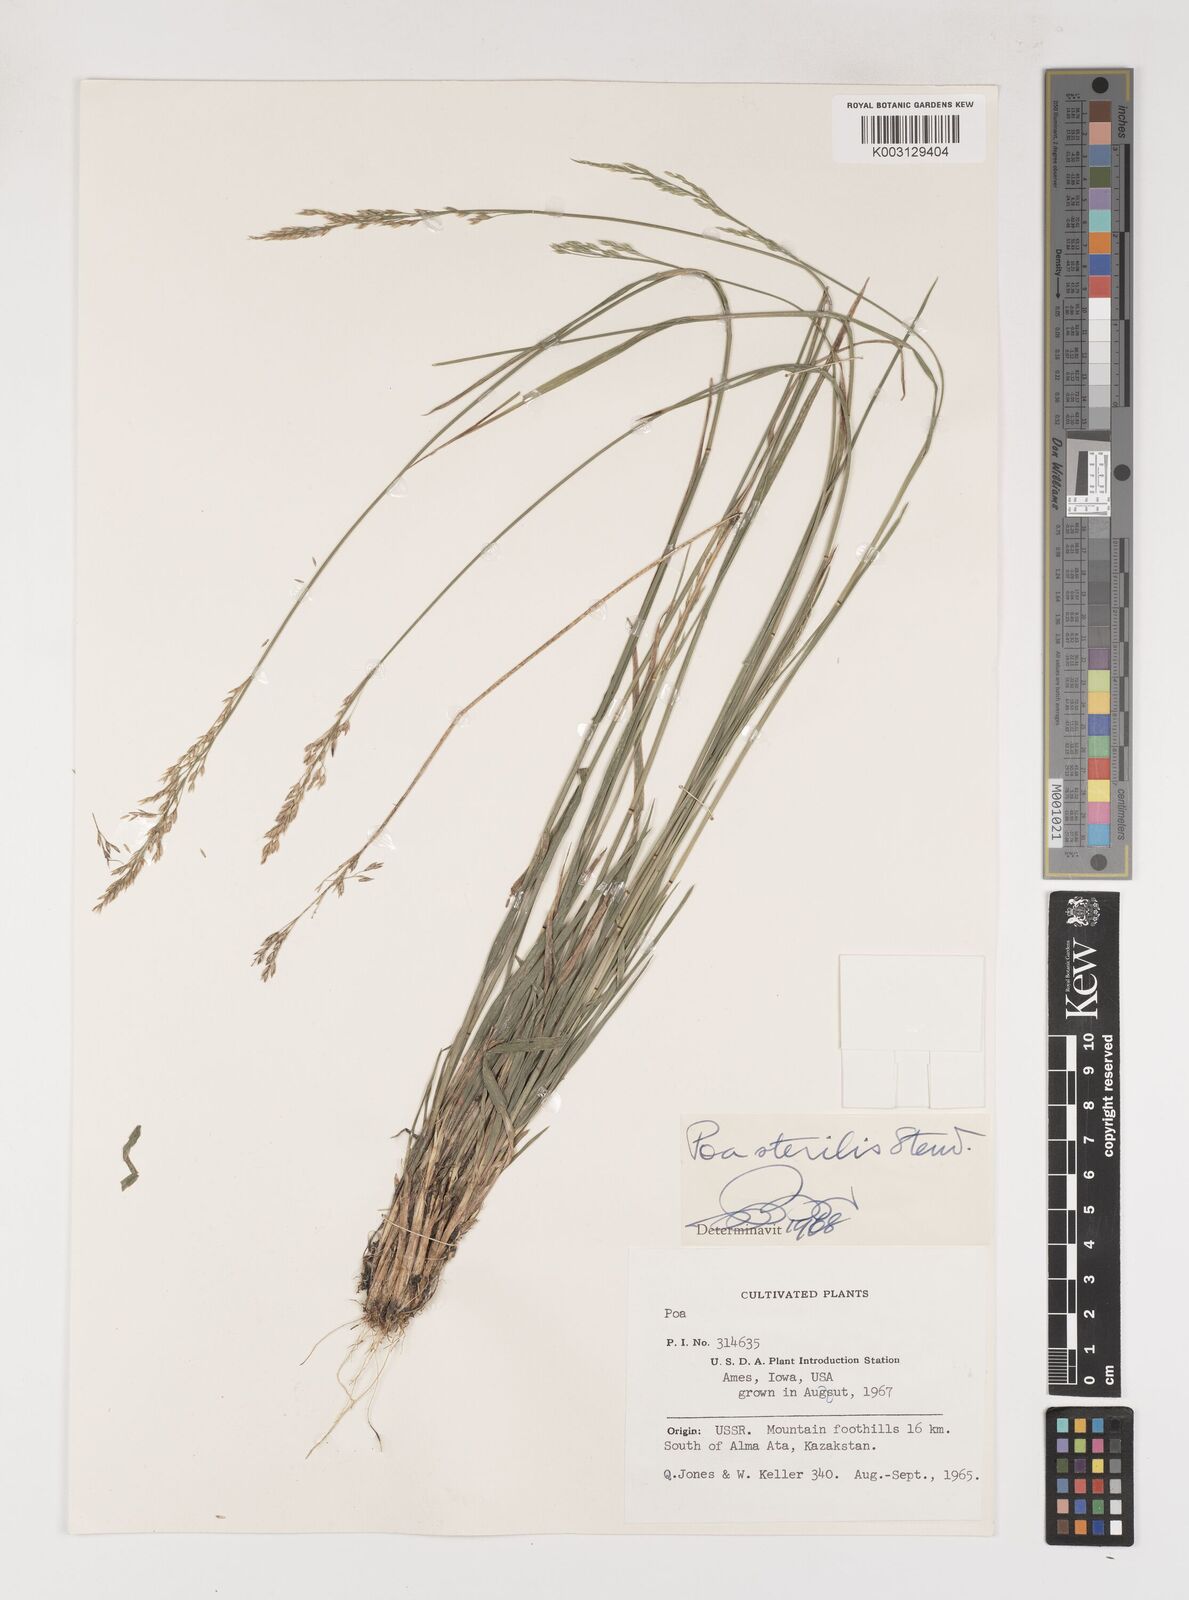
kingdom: Plantae
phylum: Tracheophyta
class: Liliopsida
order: Poales
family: Poaceae
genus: Poa
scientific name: Poa sterilis
